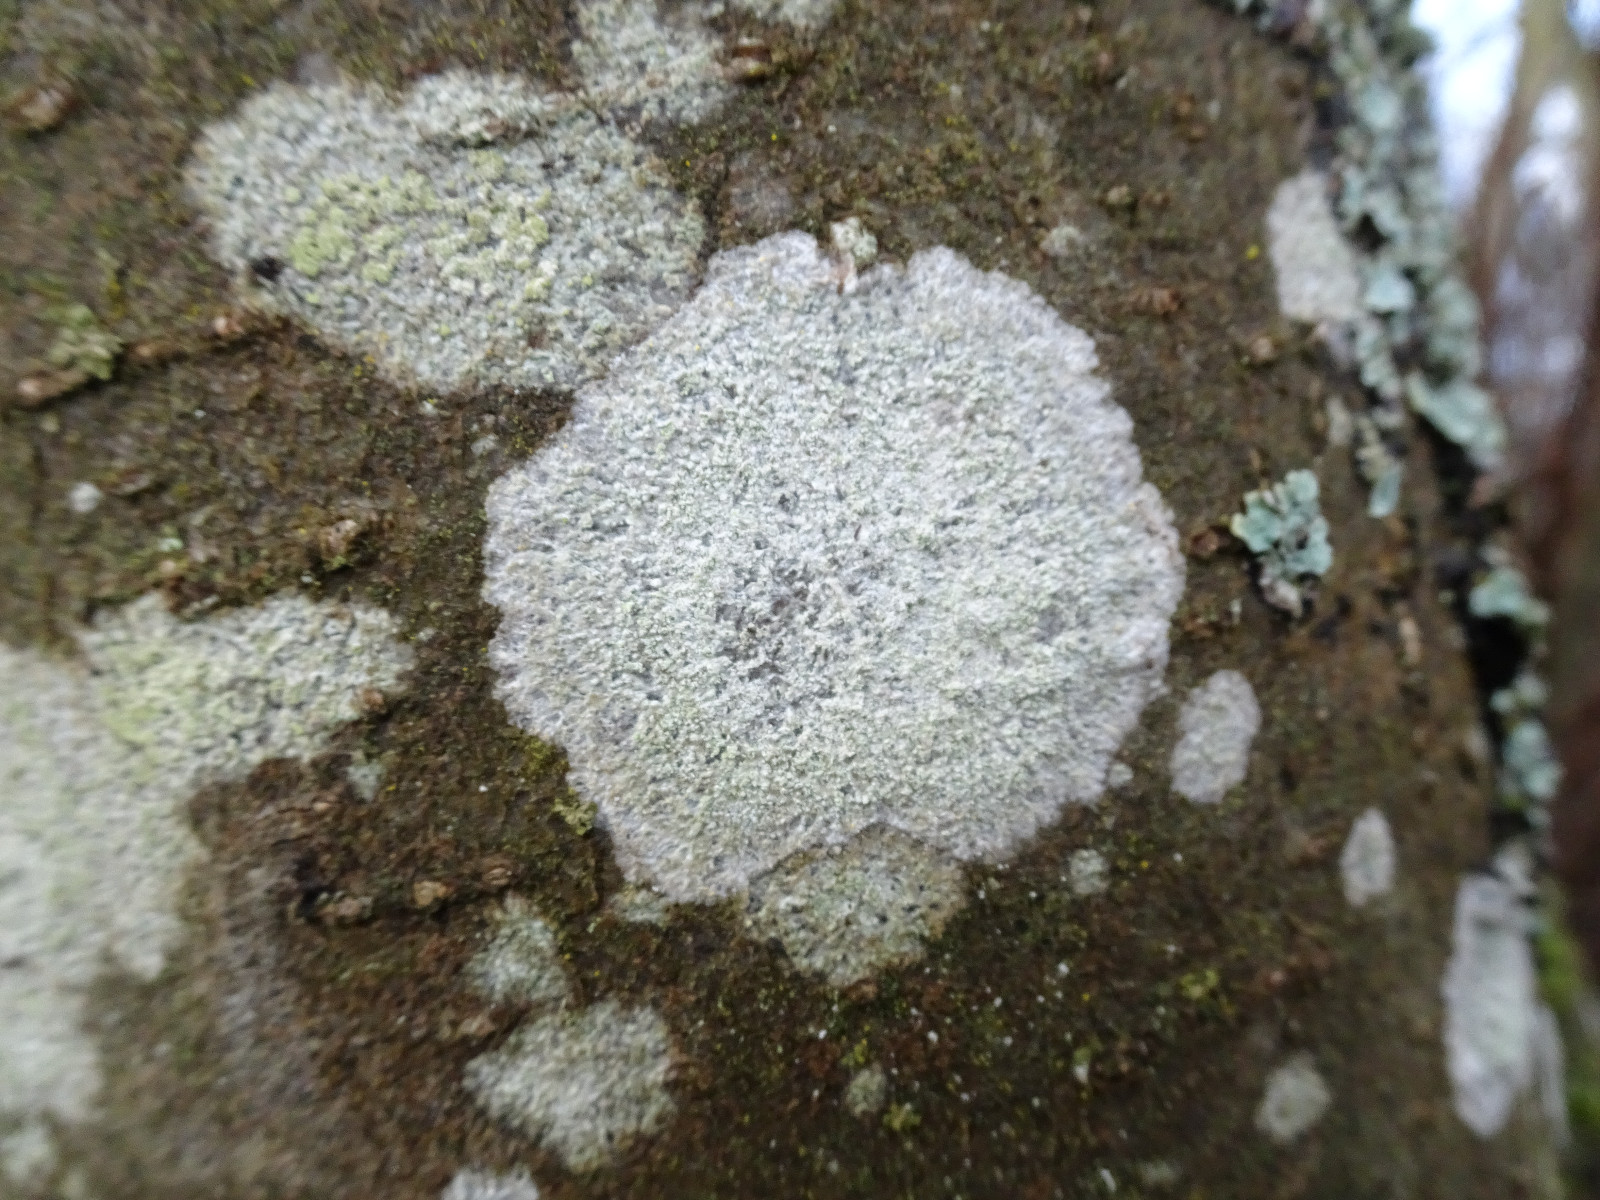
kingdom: Fungi
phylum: Ascomycota
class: Lecanoromycetes
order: Ostropales
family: Phlyctidaceae
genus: Phlyctis
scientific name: Phlyctis argena
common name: almindelig sølvlav
